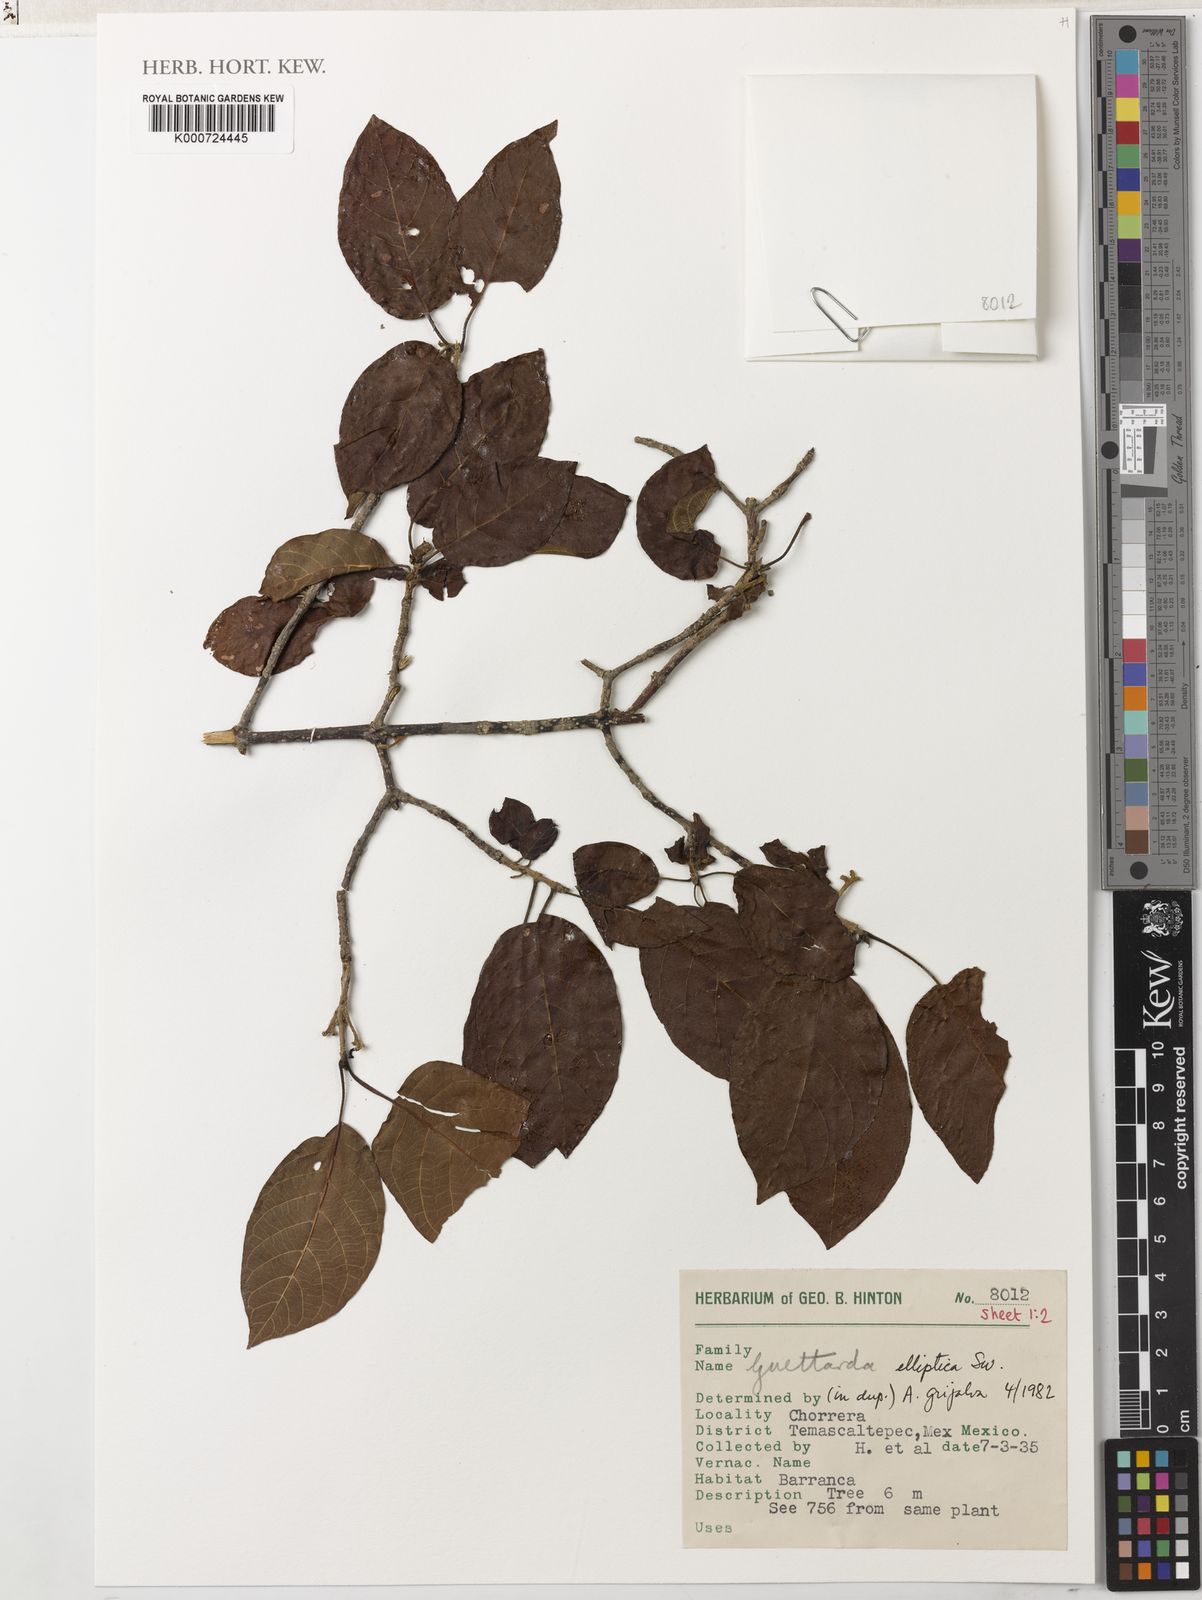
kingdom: Plantae
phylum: Tracheophyta
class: Magnoliopsida
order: Gentianales
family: Rubiaceae
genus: Guettarda
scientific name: Guettarda elliptica
